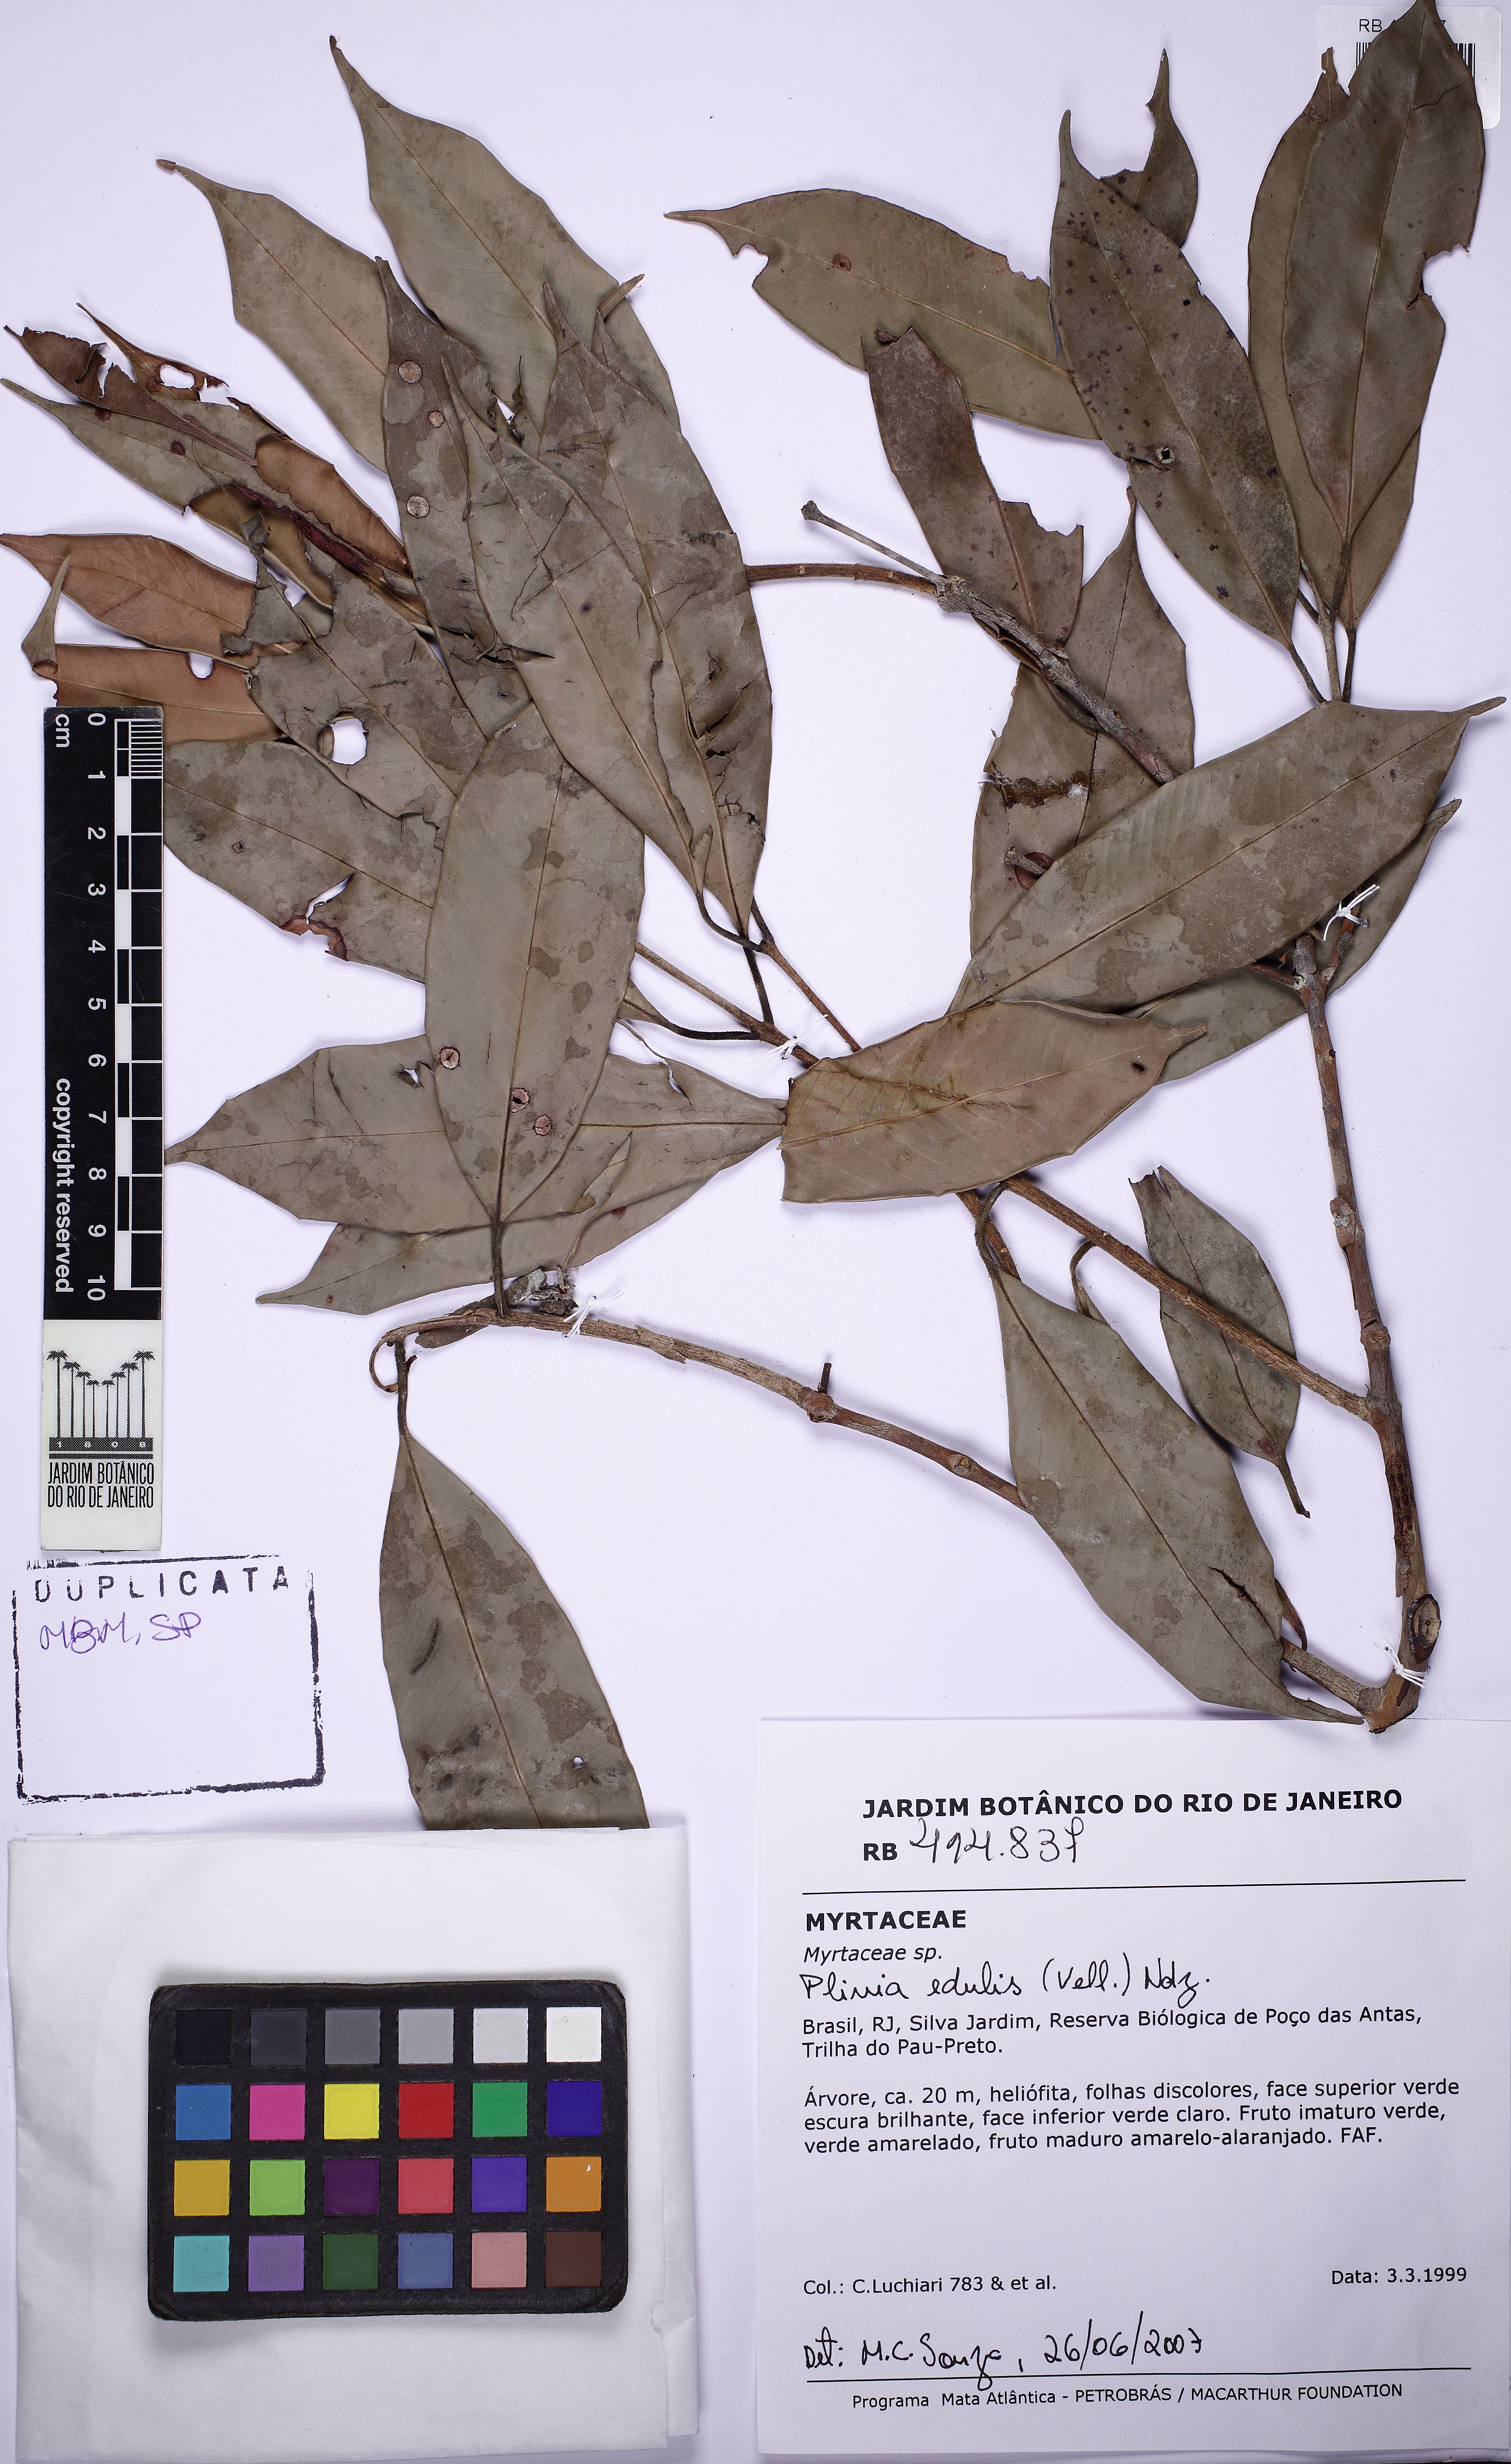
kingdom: Plantae
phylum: Tracheophyta
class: Magnoliopsida
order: Myrtales
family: Myrtaceae
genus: Plinia
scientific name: Plinia edulis
